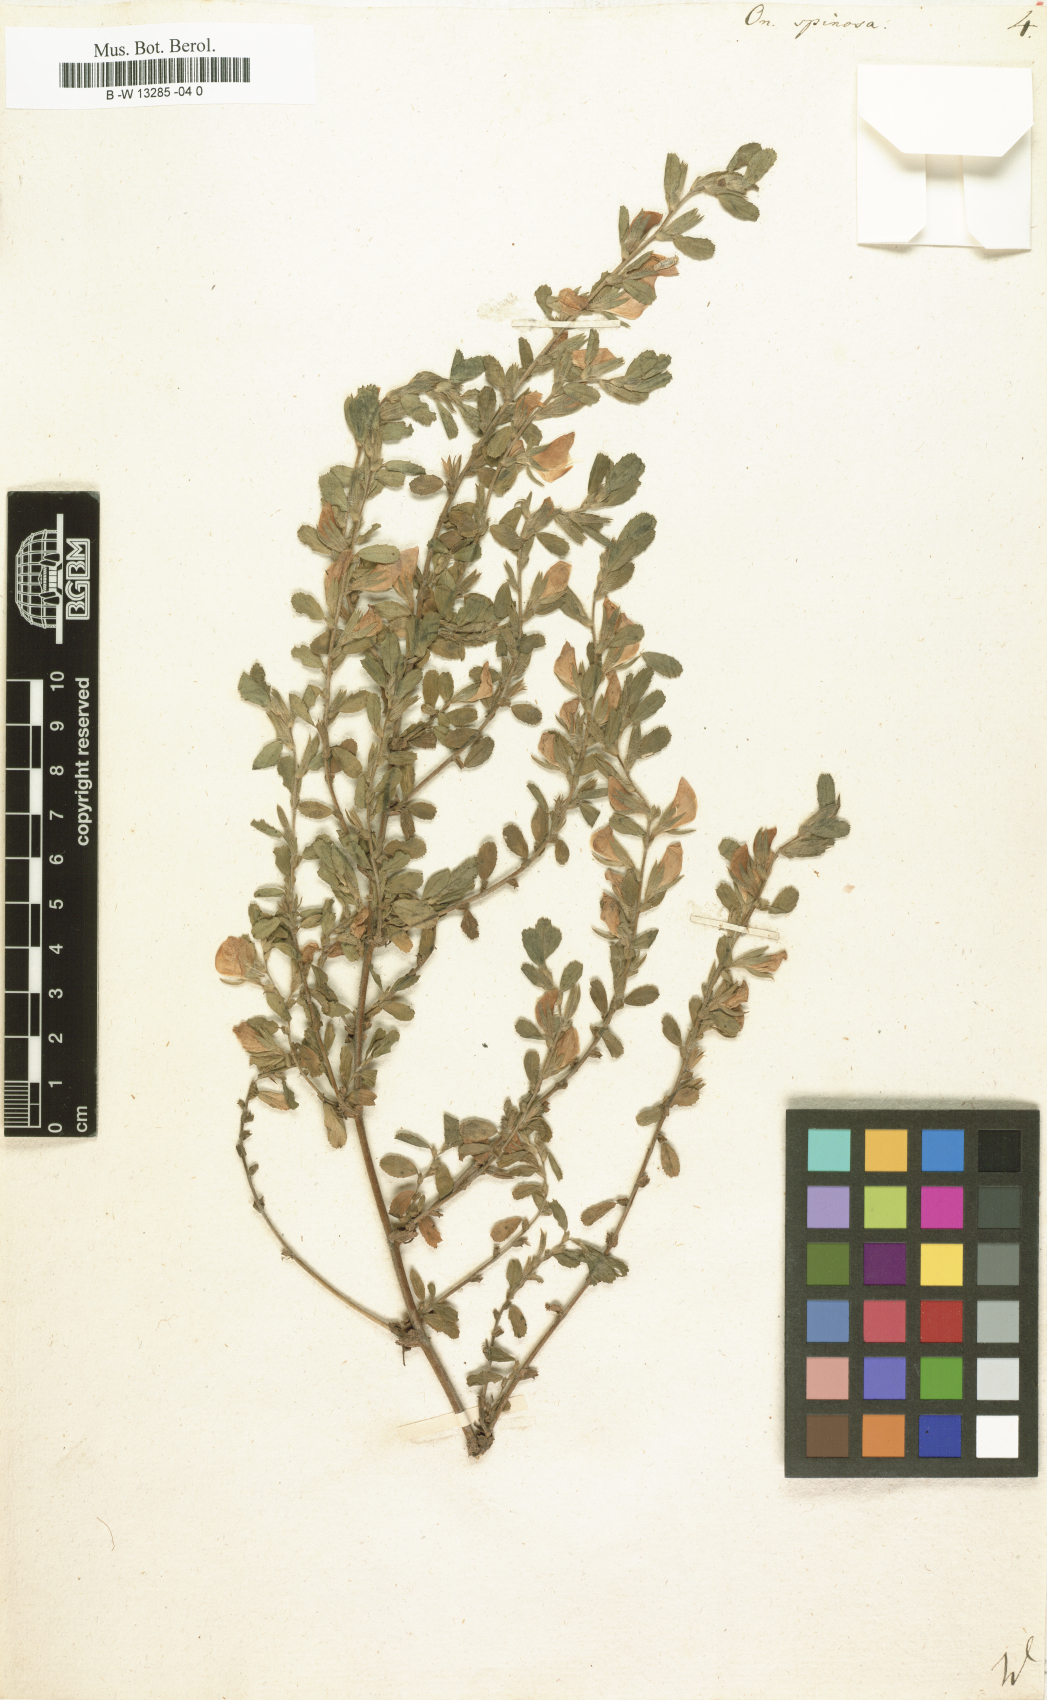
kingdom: Plantae
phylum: Tracheophyta
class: Magnoliopsida
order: Fabales
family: Fabaceae
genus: Ononis
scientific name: Ononis spinosa
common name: Spiny restharrow
